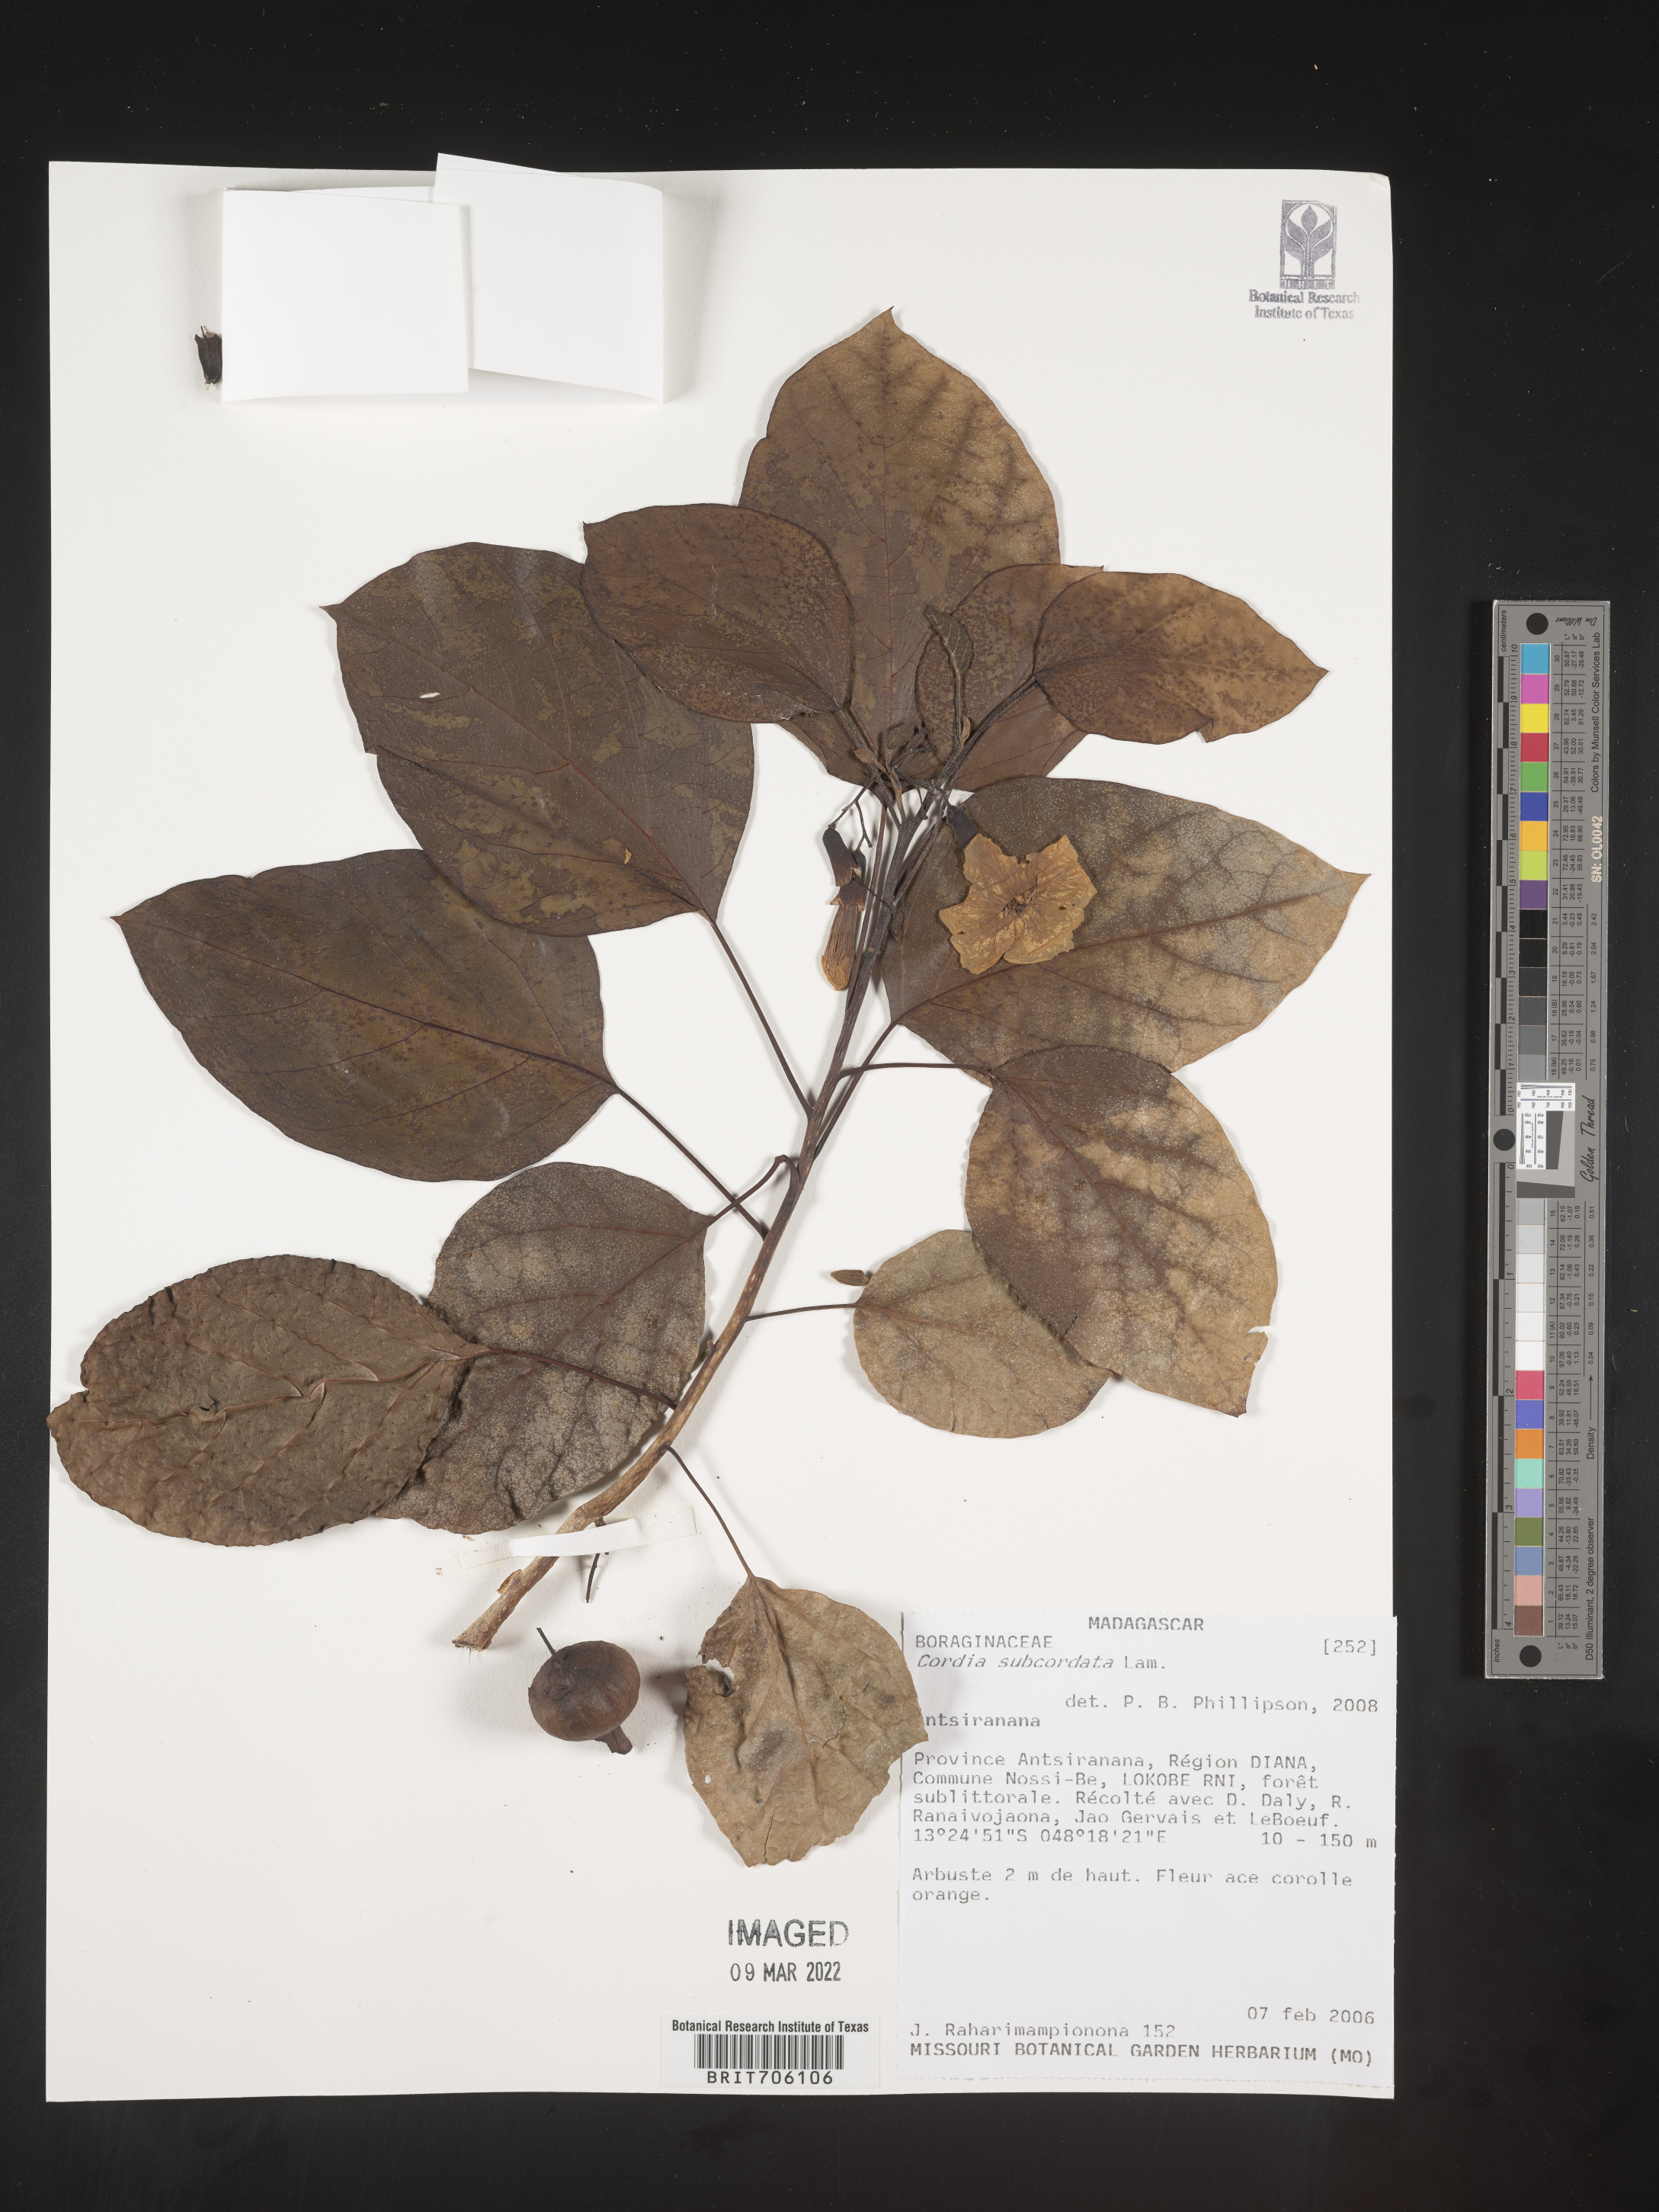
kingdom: Plantae
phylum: Tracheophyta
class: Magnoliopsida
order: Boraginales
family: Cordiaceae
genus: Cordia
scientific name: Cordia
